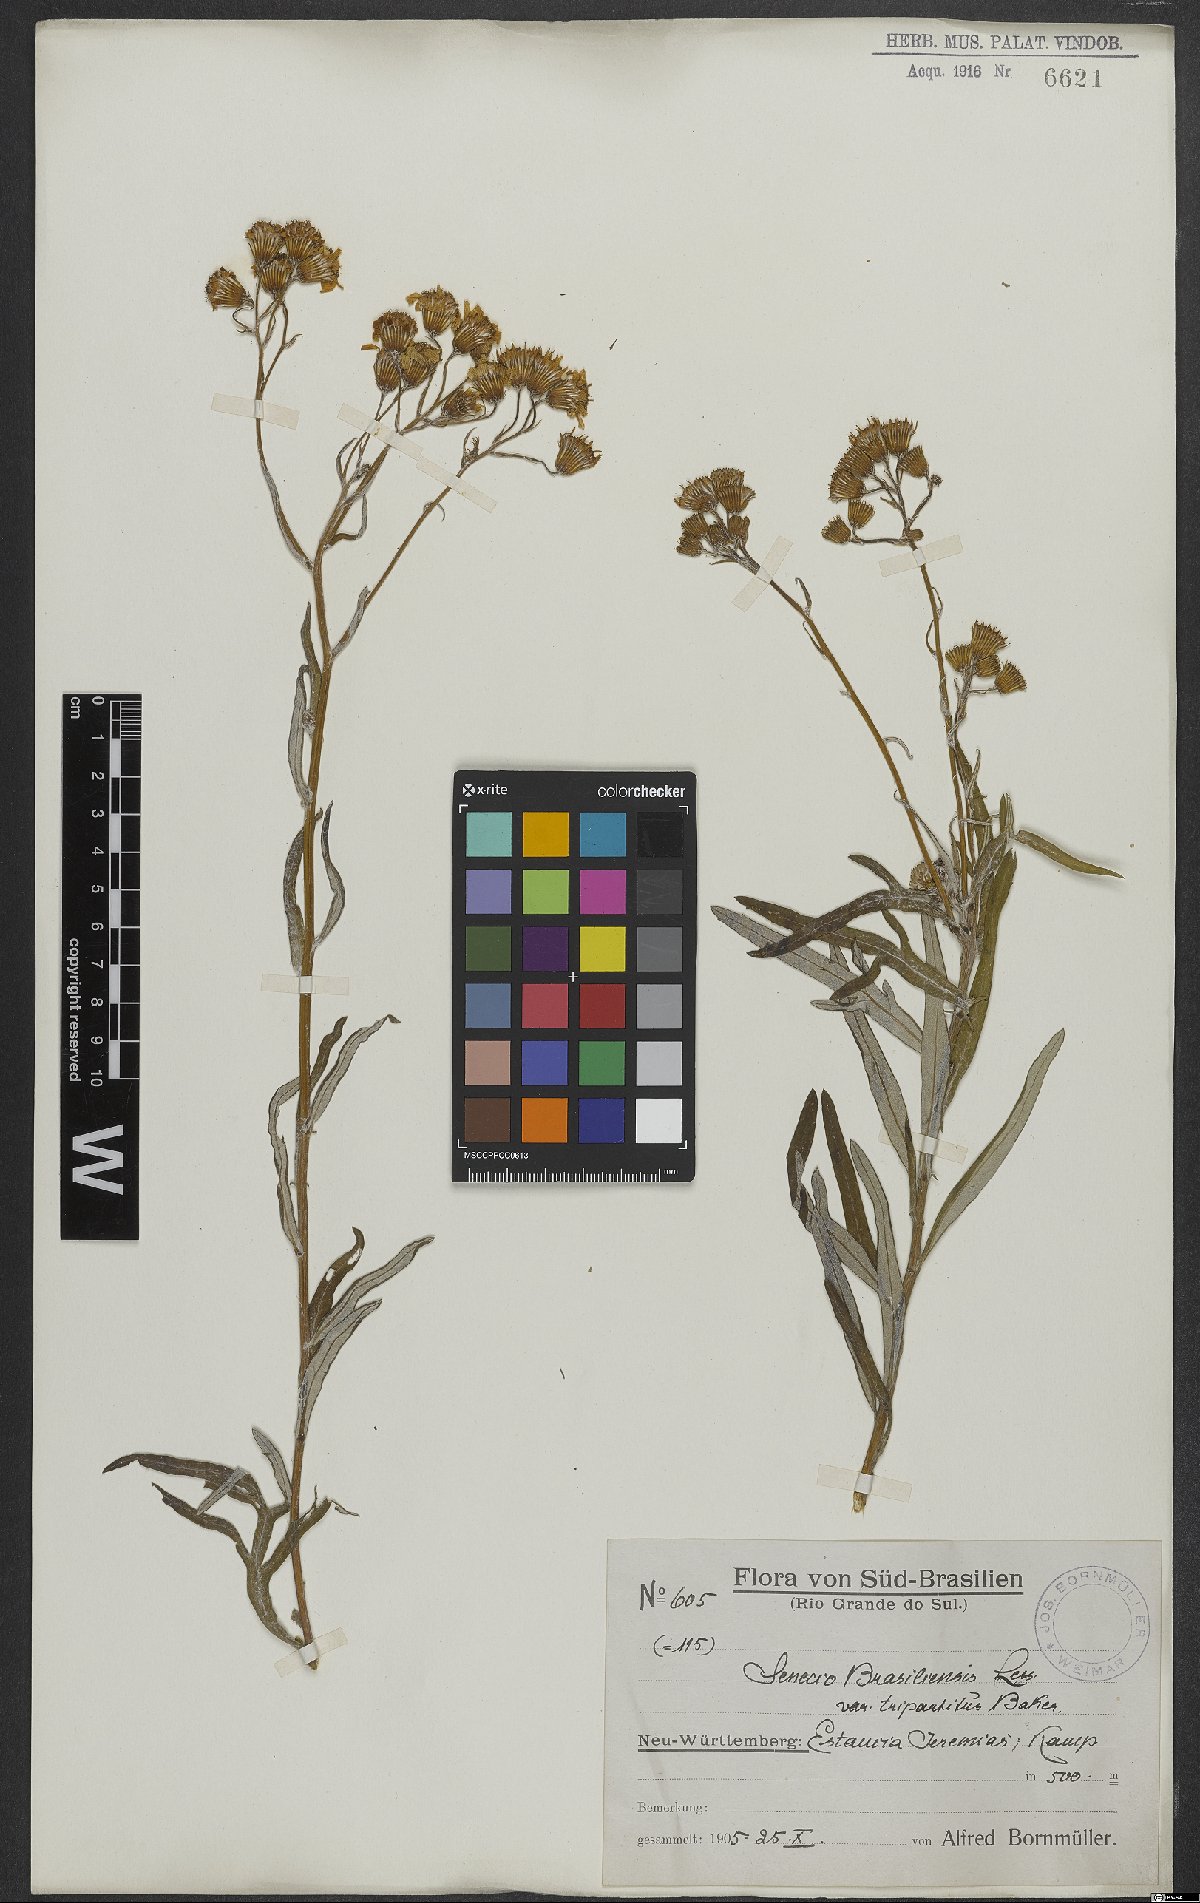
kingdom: Plantae
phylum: Tracheophyta
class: Magnoliopsida
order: Asterales
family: Asteraceae
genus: Senecio
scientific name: Senecio brasiliensis
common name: Hemp-leaf ragwort
